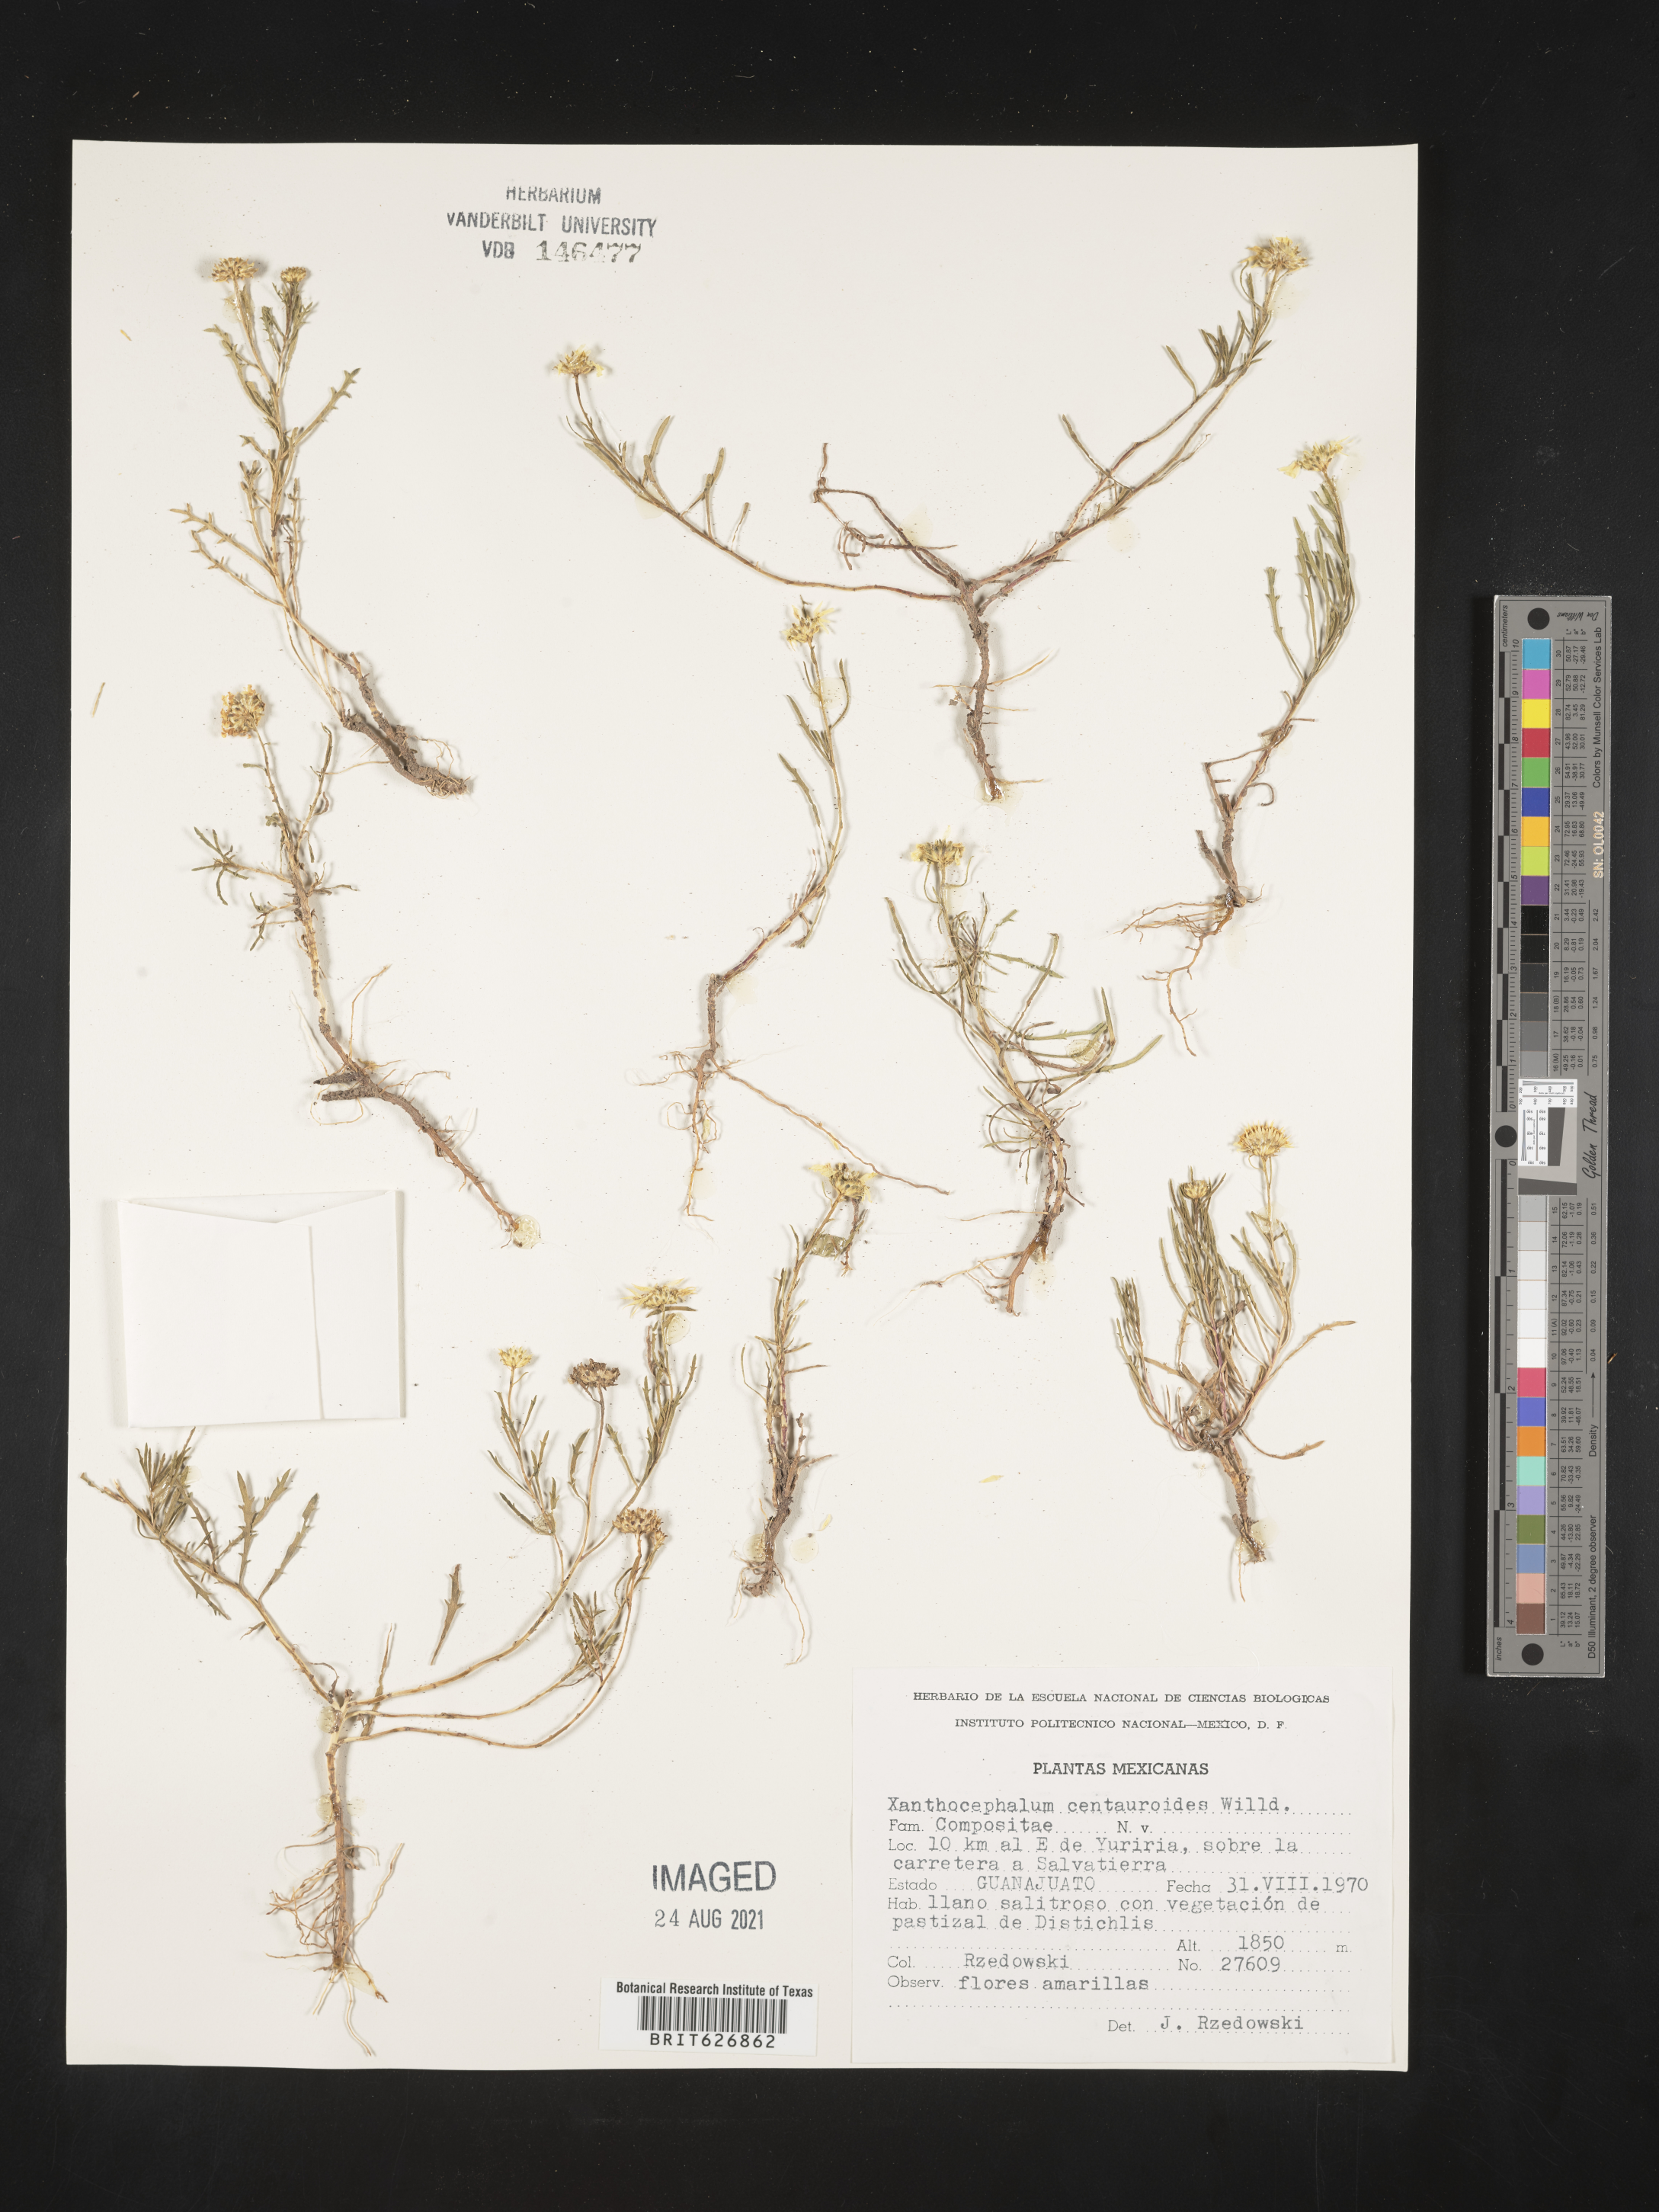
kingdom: Plantae
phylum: Tracheophyta
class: Magnoliopsida
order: Asterales
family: Asteraceae
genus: Xanthocephalum
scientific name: Xanthocephalum
